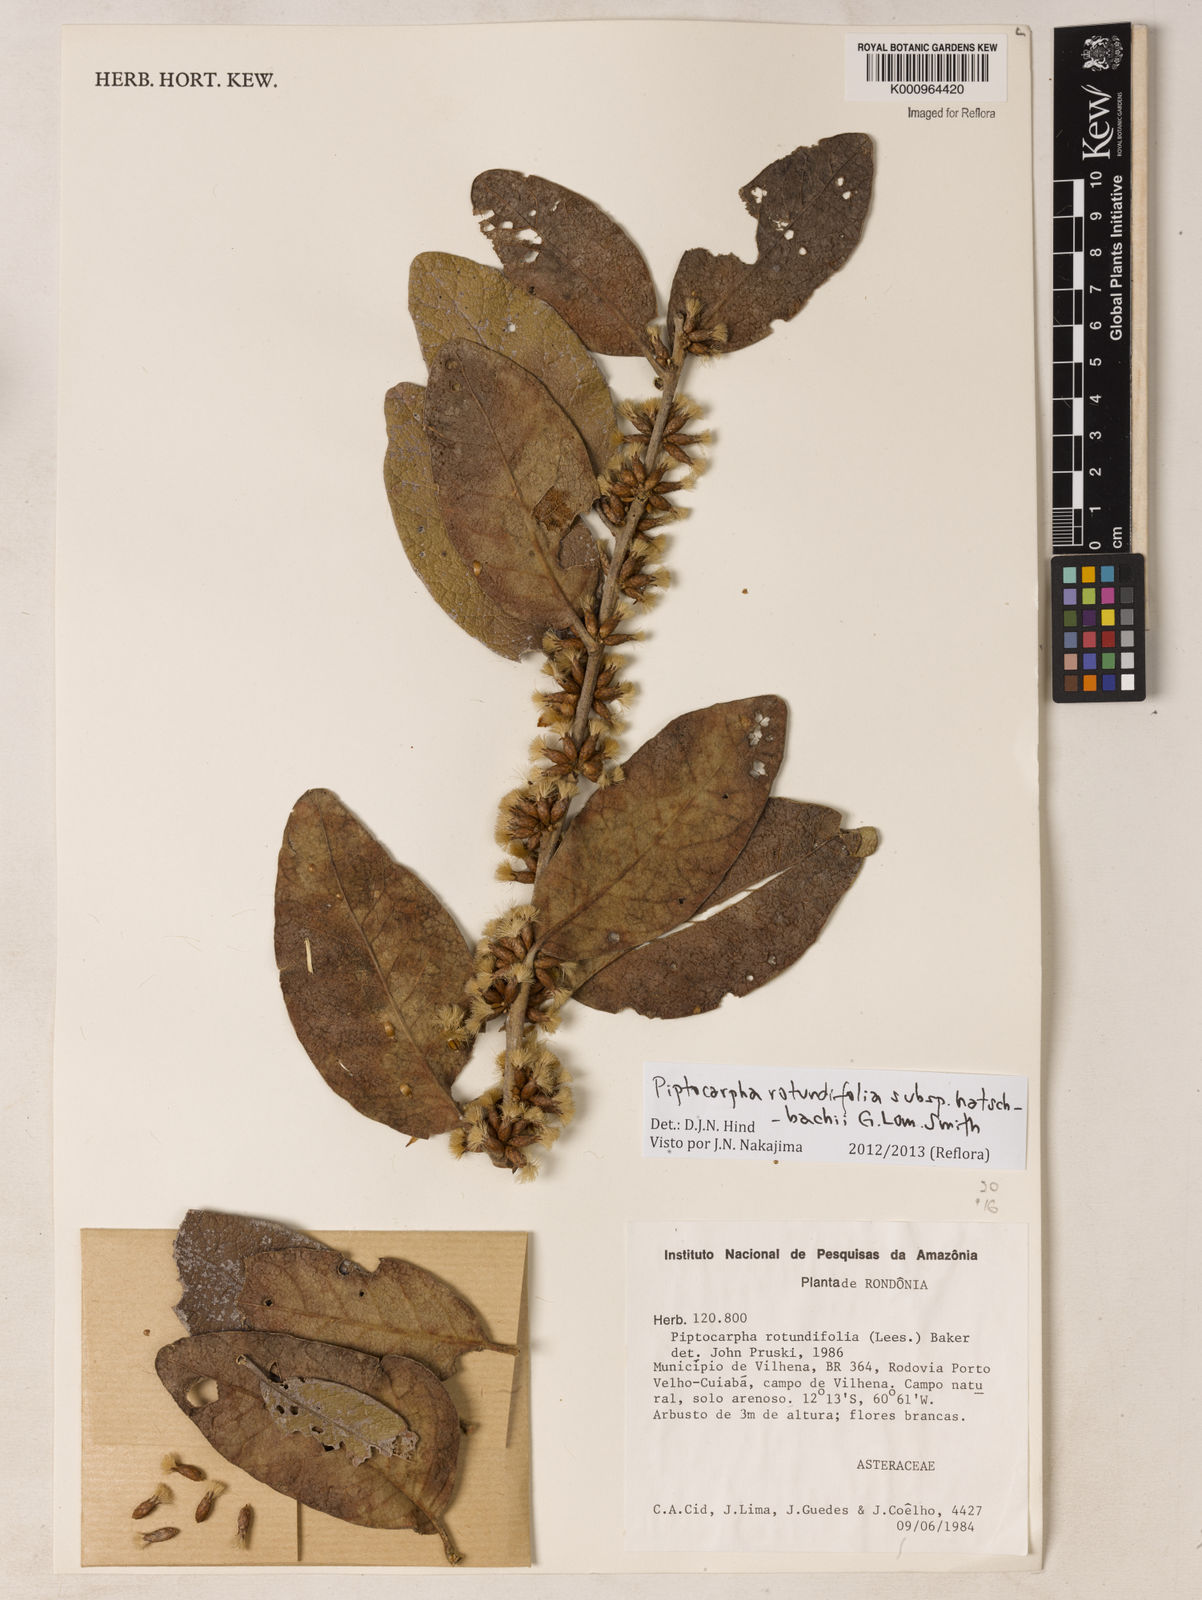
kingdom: Plantae
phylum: Tracheophyta
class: Magnoliopsida
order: Asterales
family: Asteraceae
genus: Piptocarpha
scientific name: Piptocarpha rotundifolia
